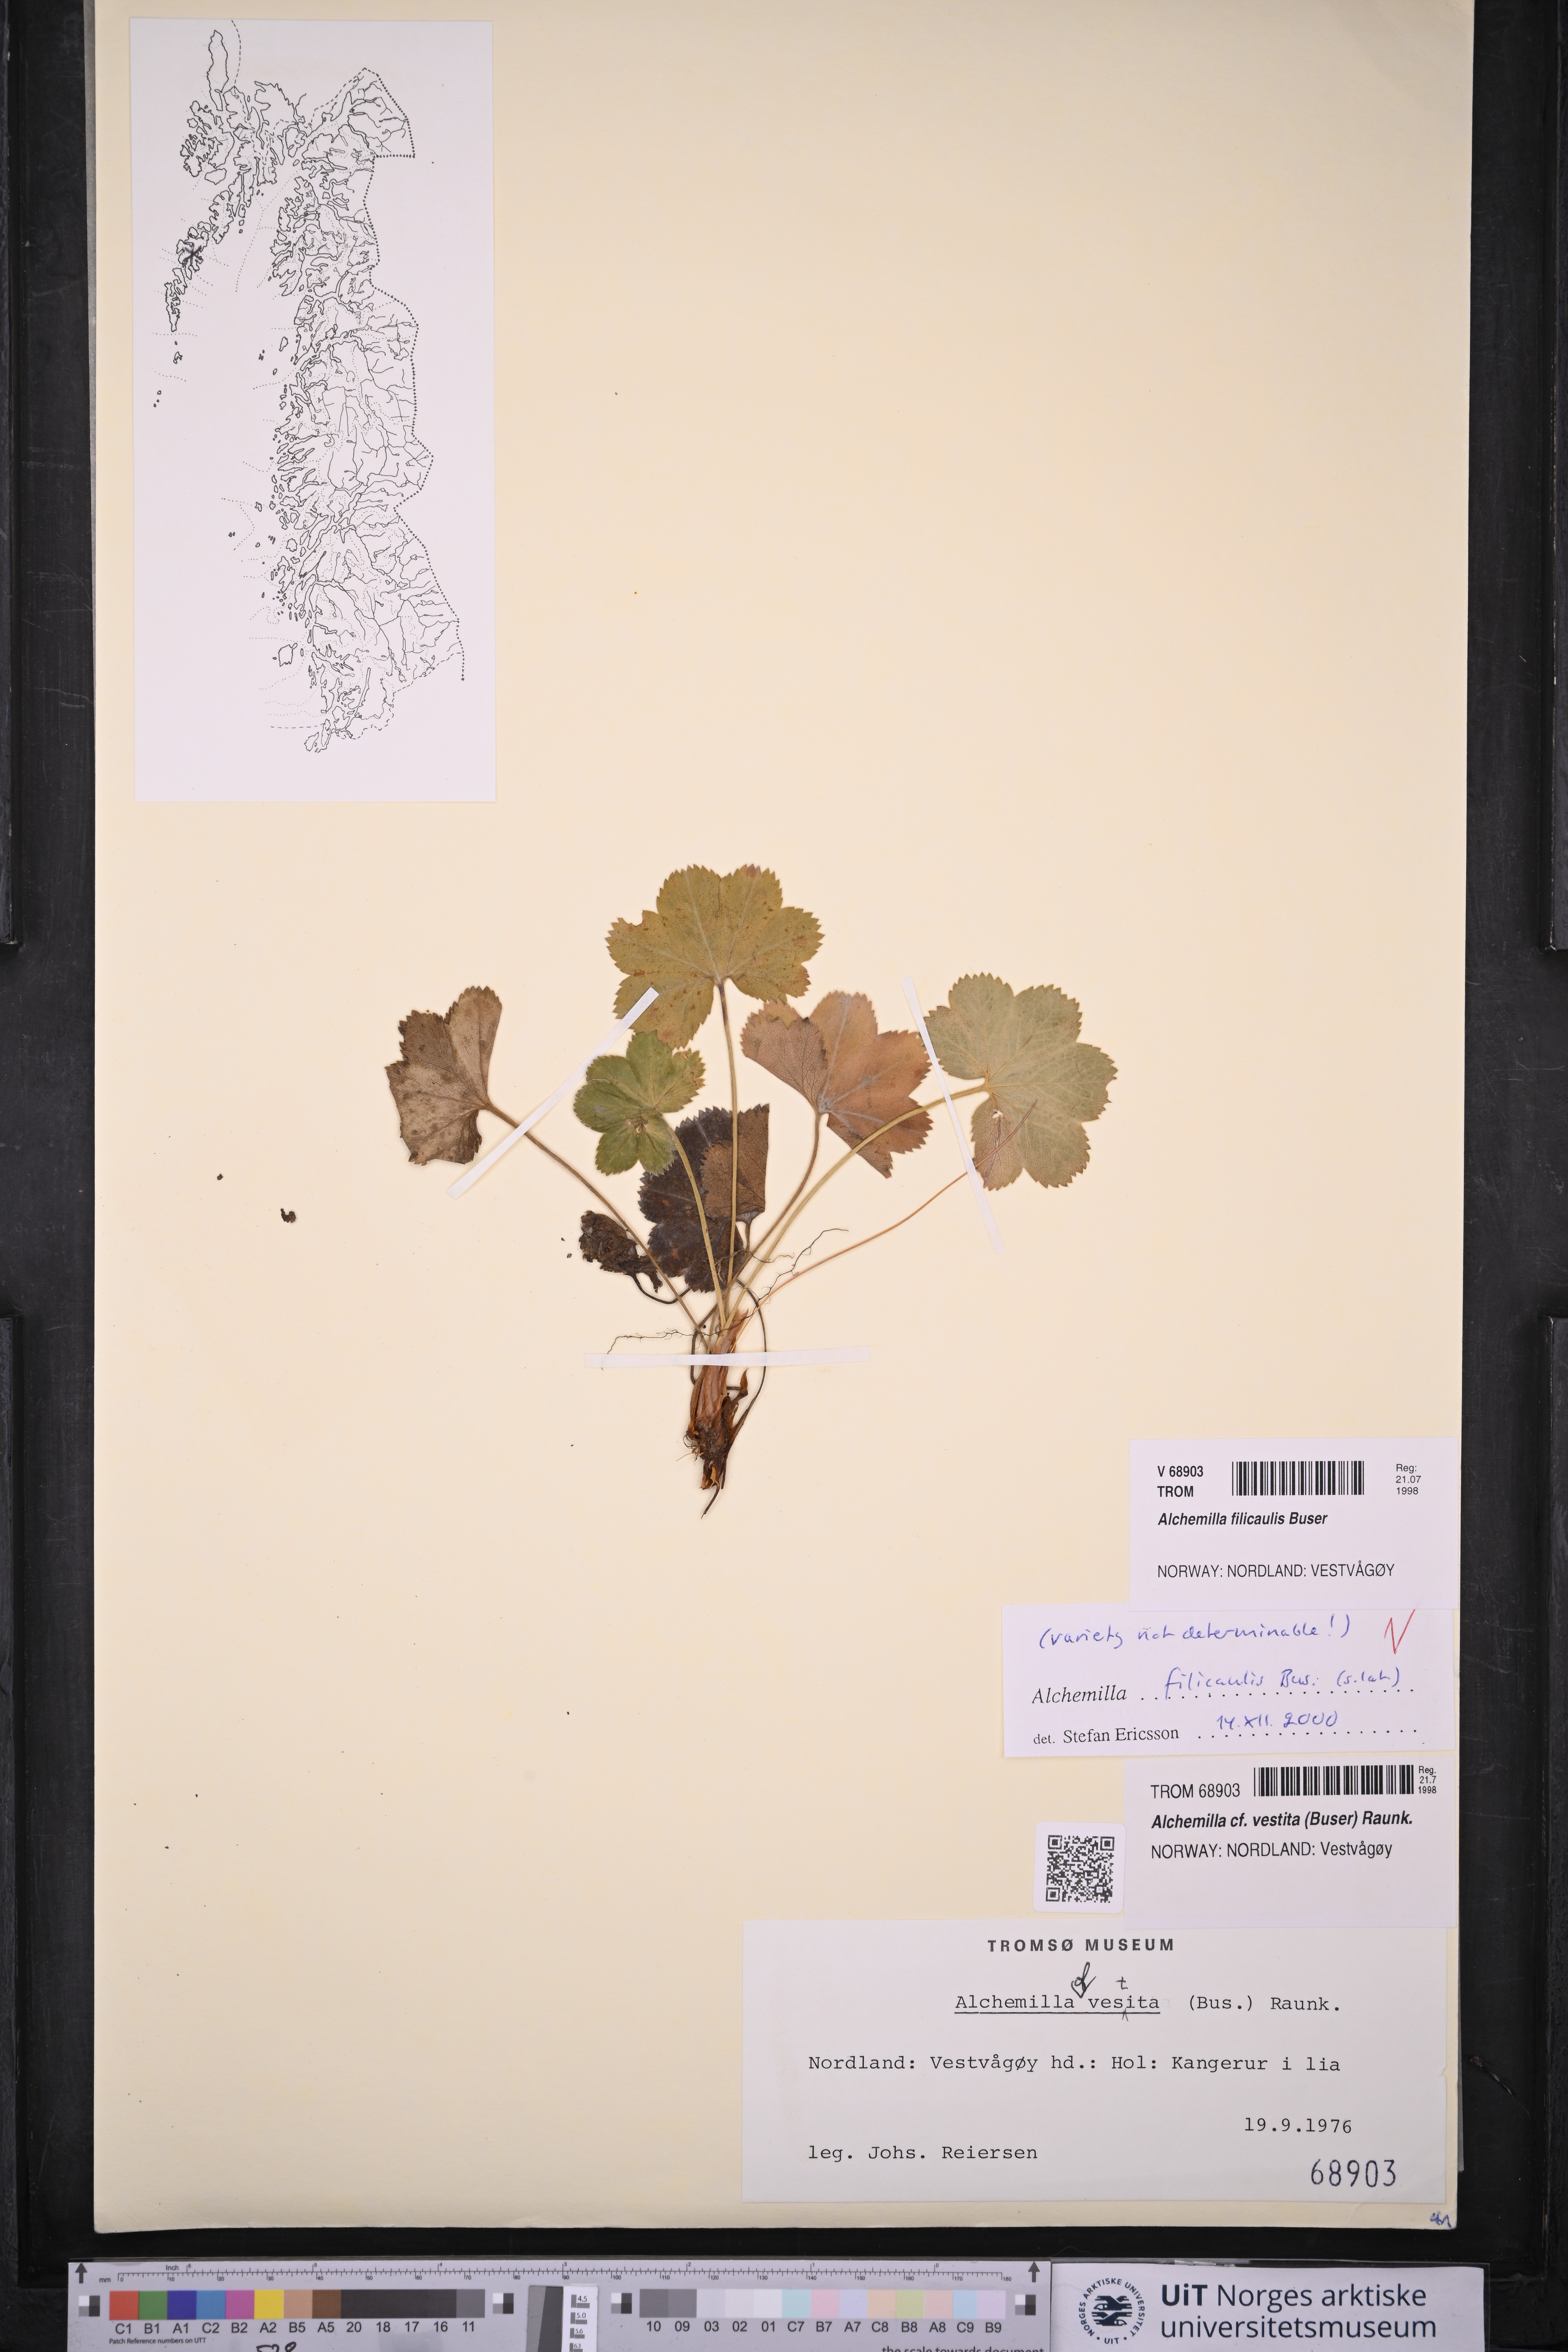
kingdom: Plantae
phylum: Tracheophyta
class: Magnoliopsida
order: Rosales
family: Rosaceae
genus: Alchemilla
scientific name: Alchemilla filicaulis
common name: Hairy lady's-mantle
